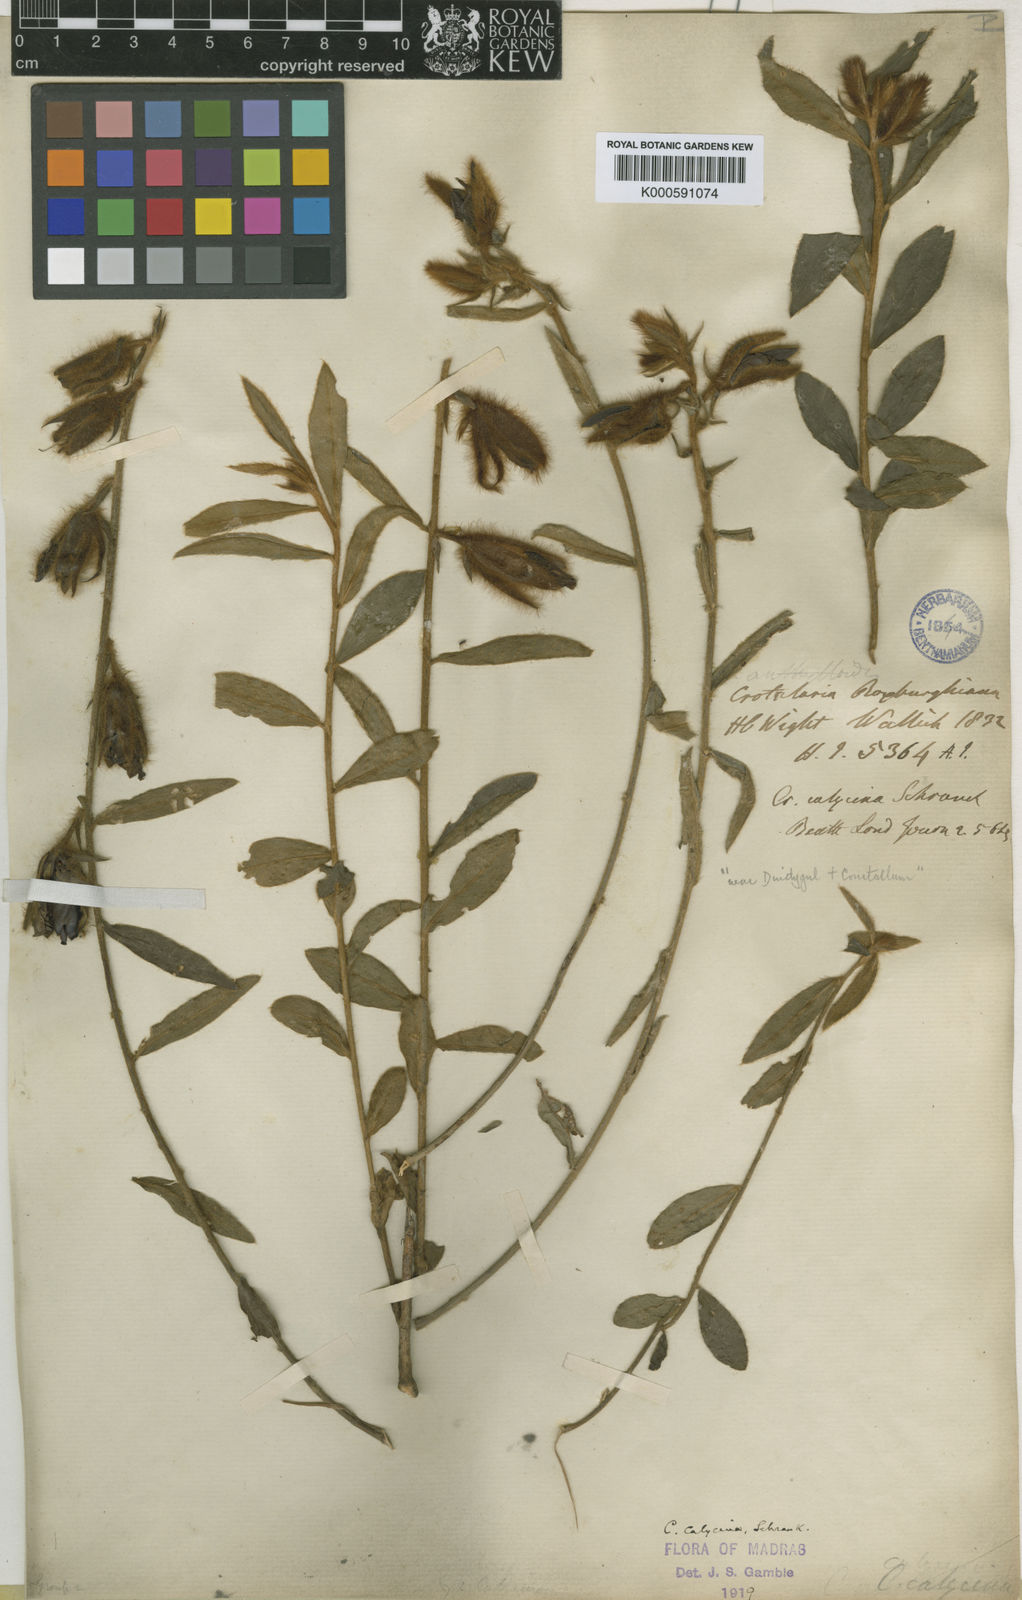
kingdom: Plantae
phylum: Tracheophyta
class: Magnoliopsida
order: Fabales
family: Fabaceae
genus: Crotalaria
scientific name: Crotalaria calycina
